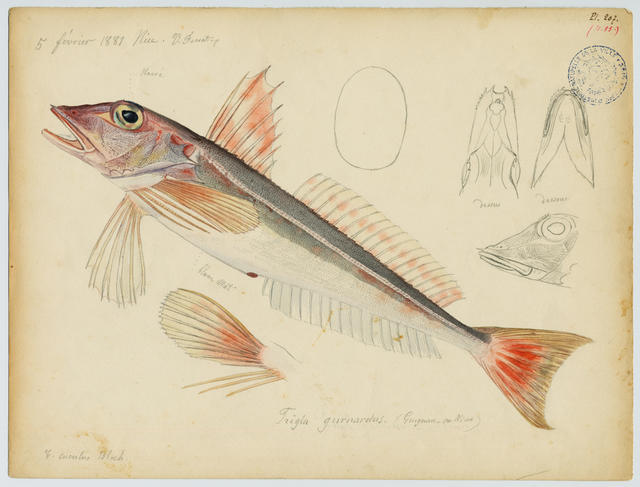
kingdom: Animalia
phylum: Chordata
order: Scorpaeniformes
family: Triglidae
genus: Eutrigla
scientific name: Eutrigla gurnardus
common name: Grey gurnard
